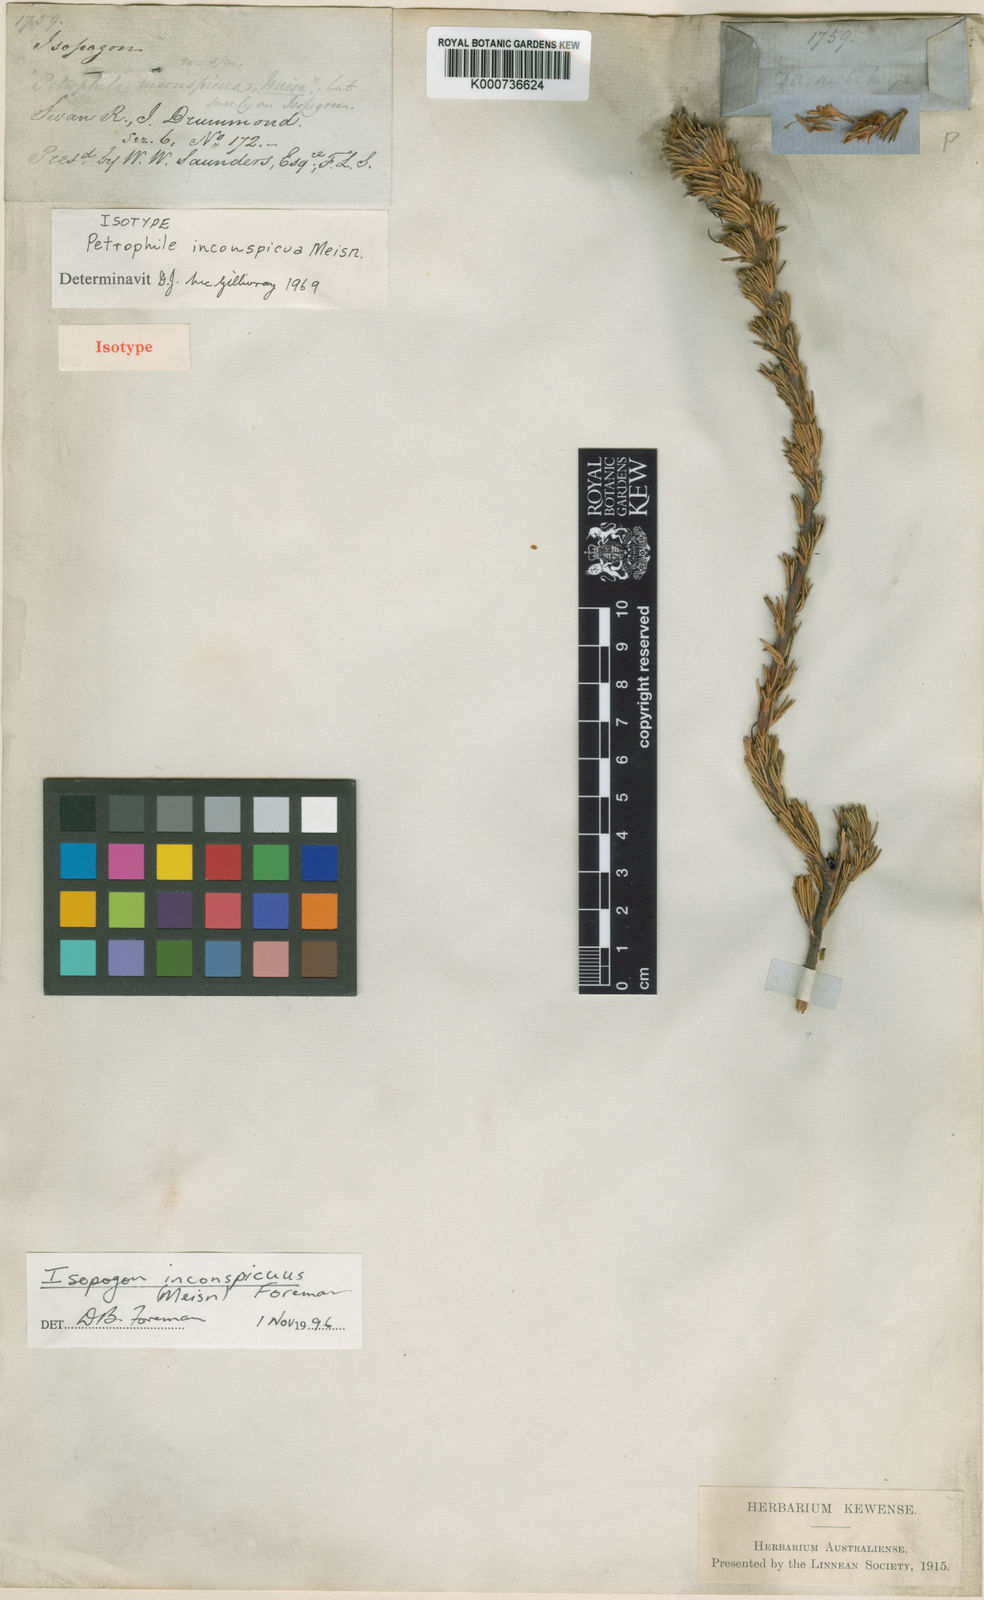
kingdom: Plantae
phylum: Tracheophyta
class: Magnoliopsida
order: Proteales
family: Proteaceae
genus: Isopogon
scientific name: Isopogon inconspicuus
